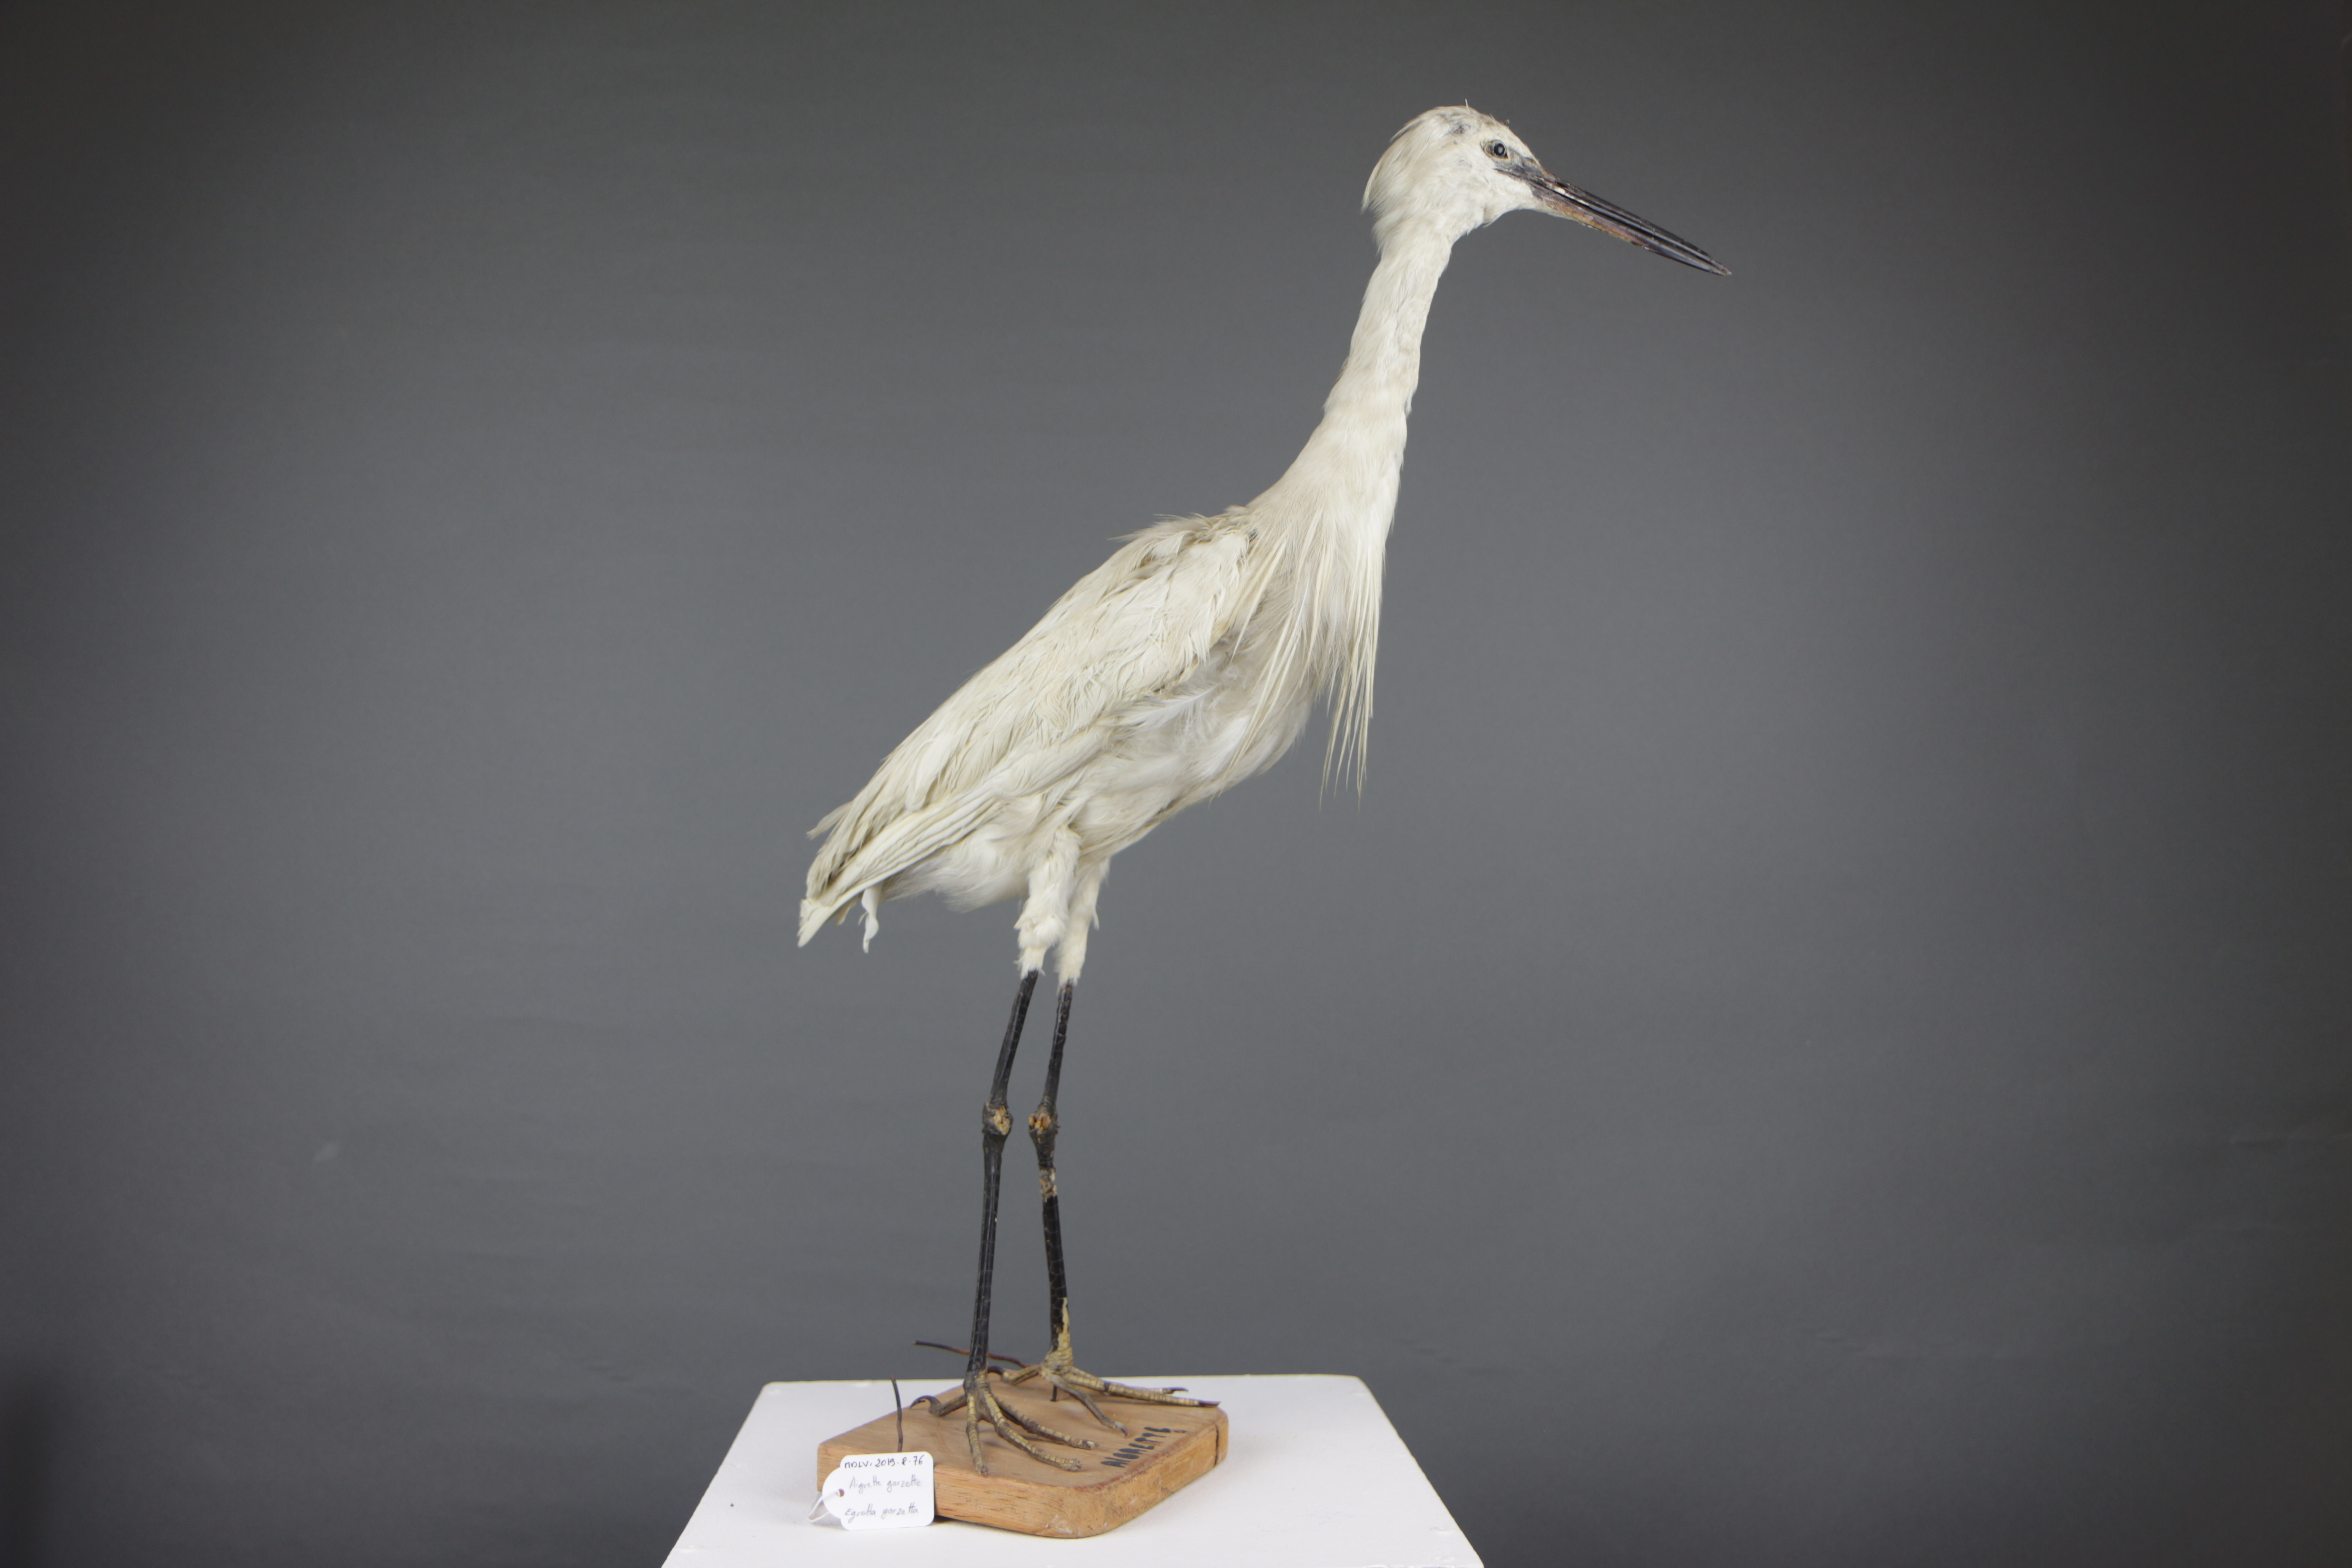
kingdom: Animalia
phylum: Chordata
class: Aves
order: Pelecaniformes
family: Ardeidae
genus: Egretta
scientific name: Egretta garzetta
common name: Little egret
